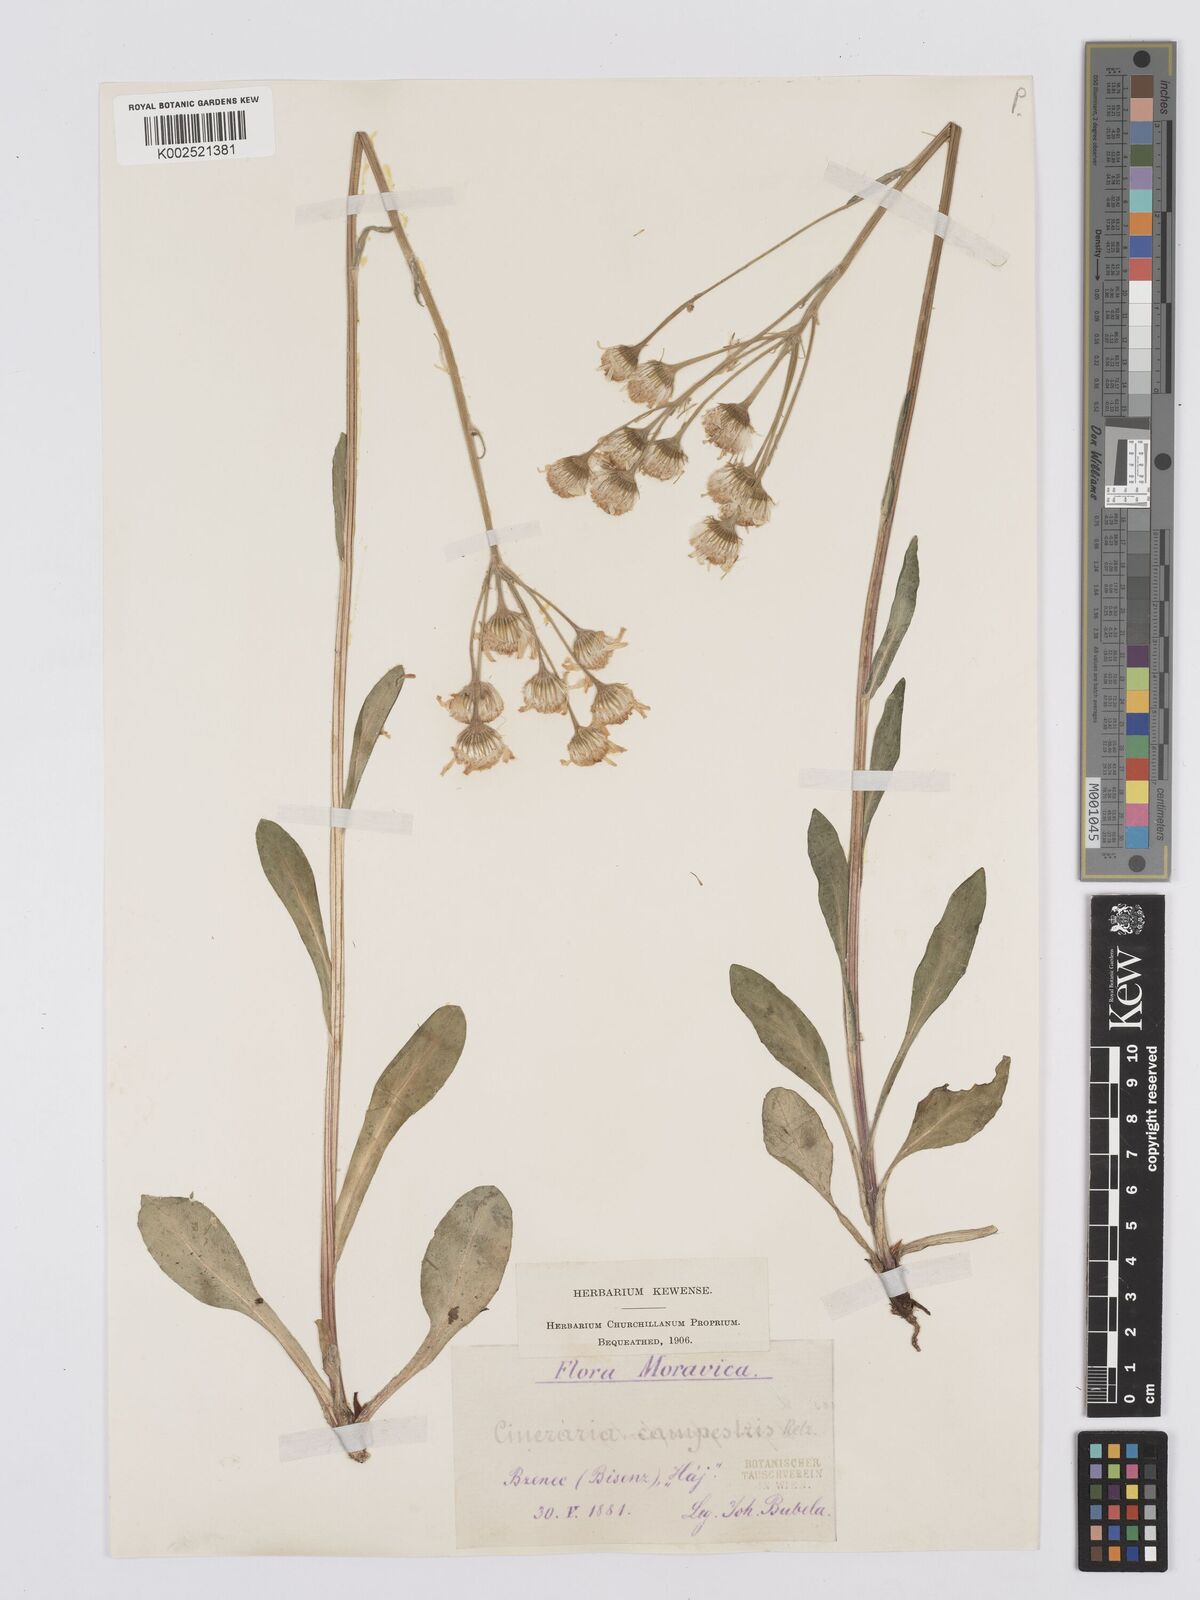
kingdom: Plantae
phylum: Tracheophyta
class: Magnoliopsida
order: Asterales
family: Asteraceae
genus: Tephroseris
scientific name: Tephroseris integrifolia
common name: Field fleawort
